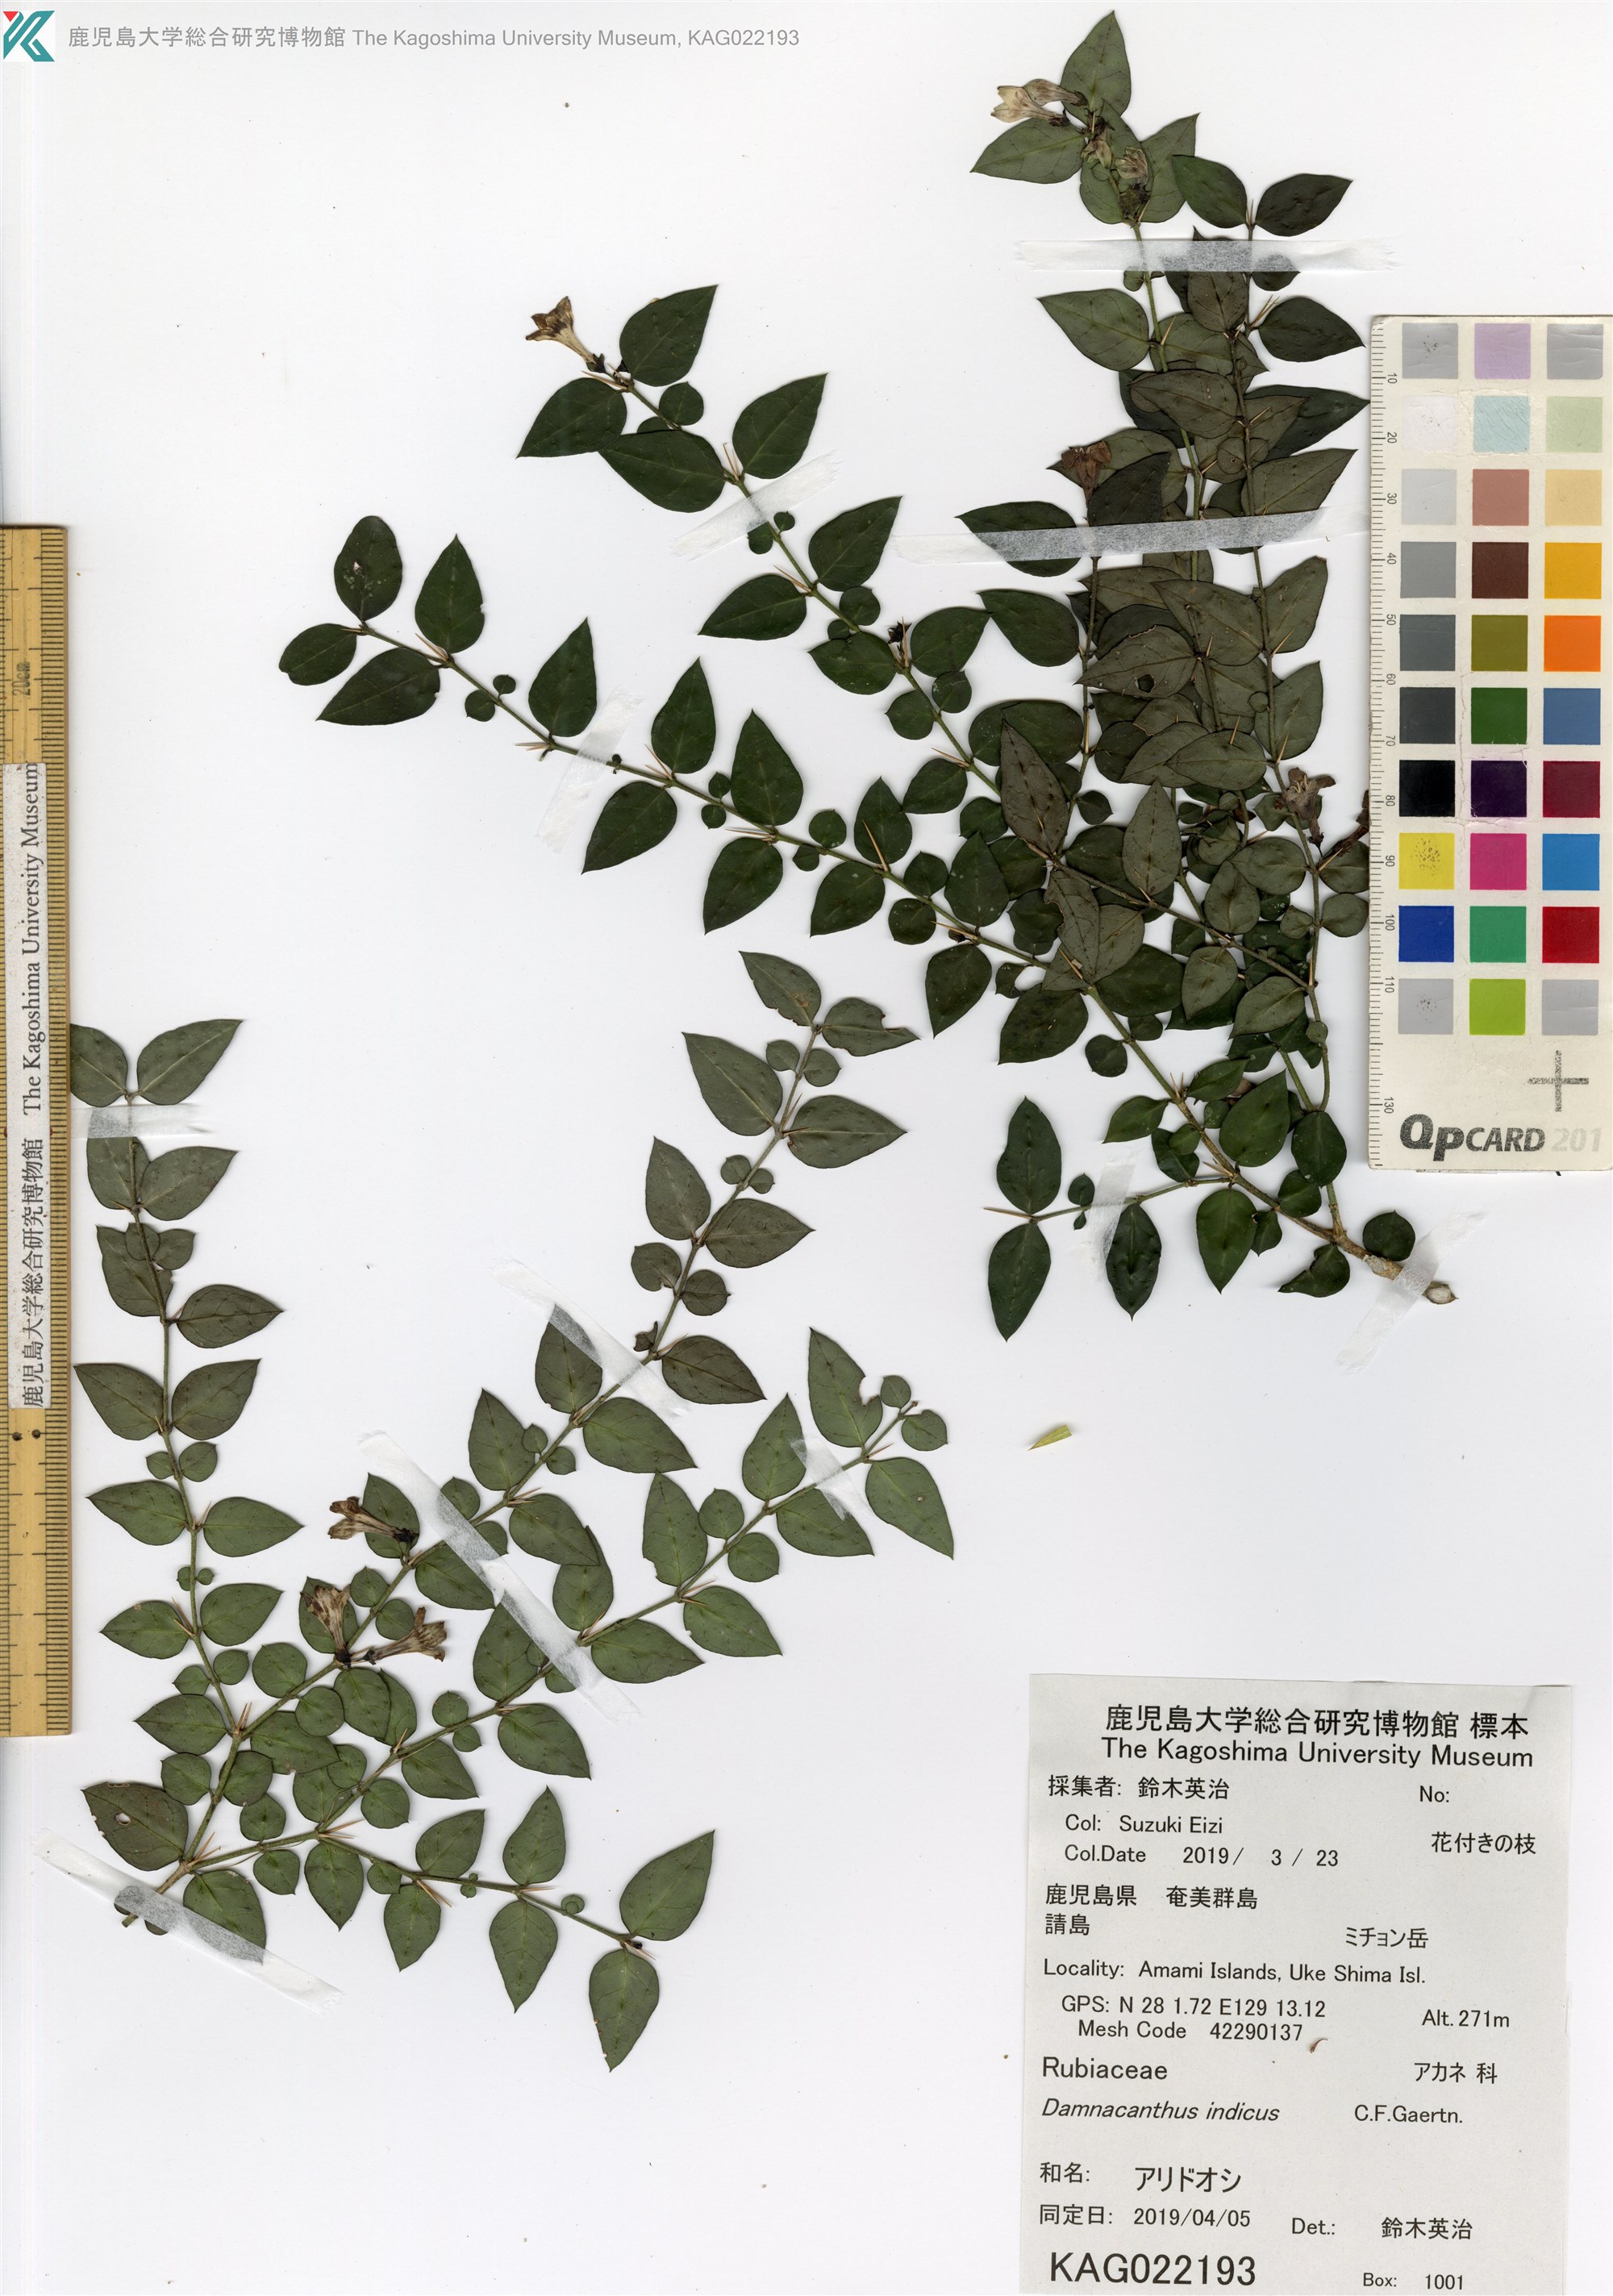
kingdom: Plantae
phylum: Tracheophyta
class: Magnoliopsida
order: Gentianales
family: Rubiaceae
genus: Damnacanthus
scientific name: Damnacanthus indicus
